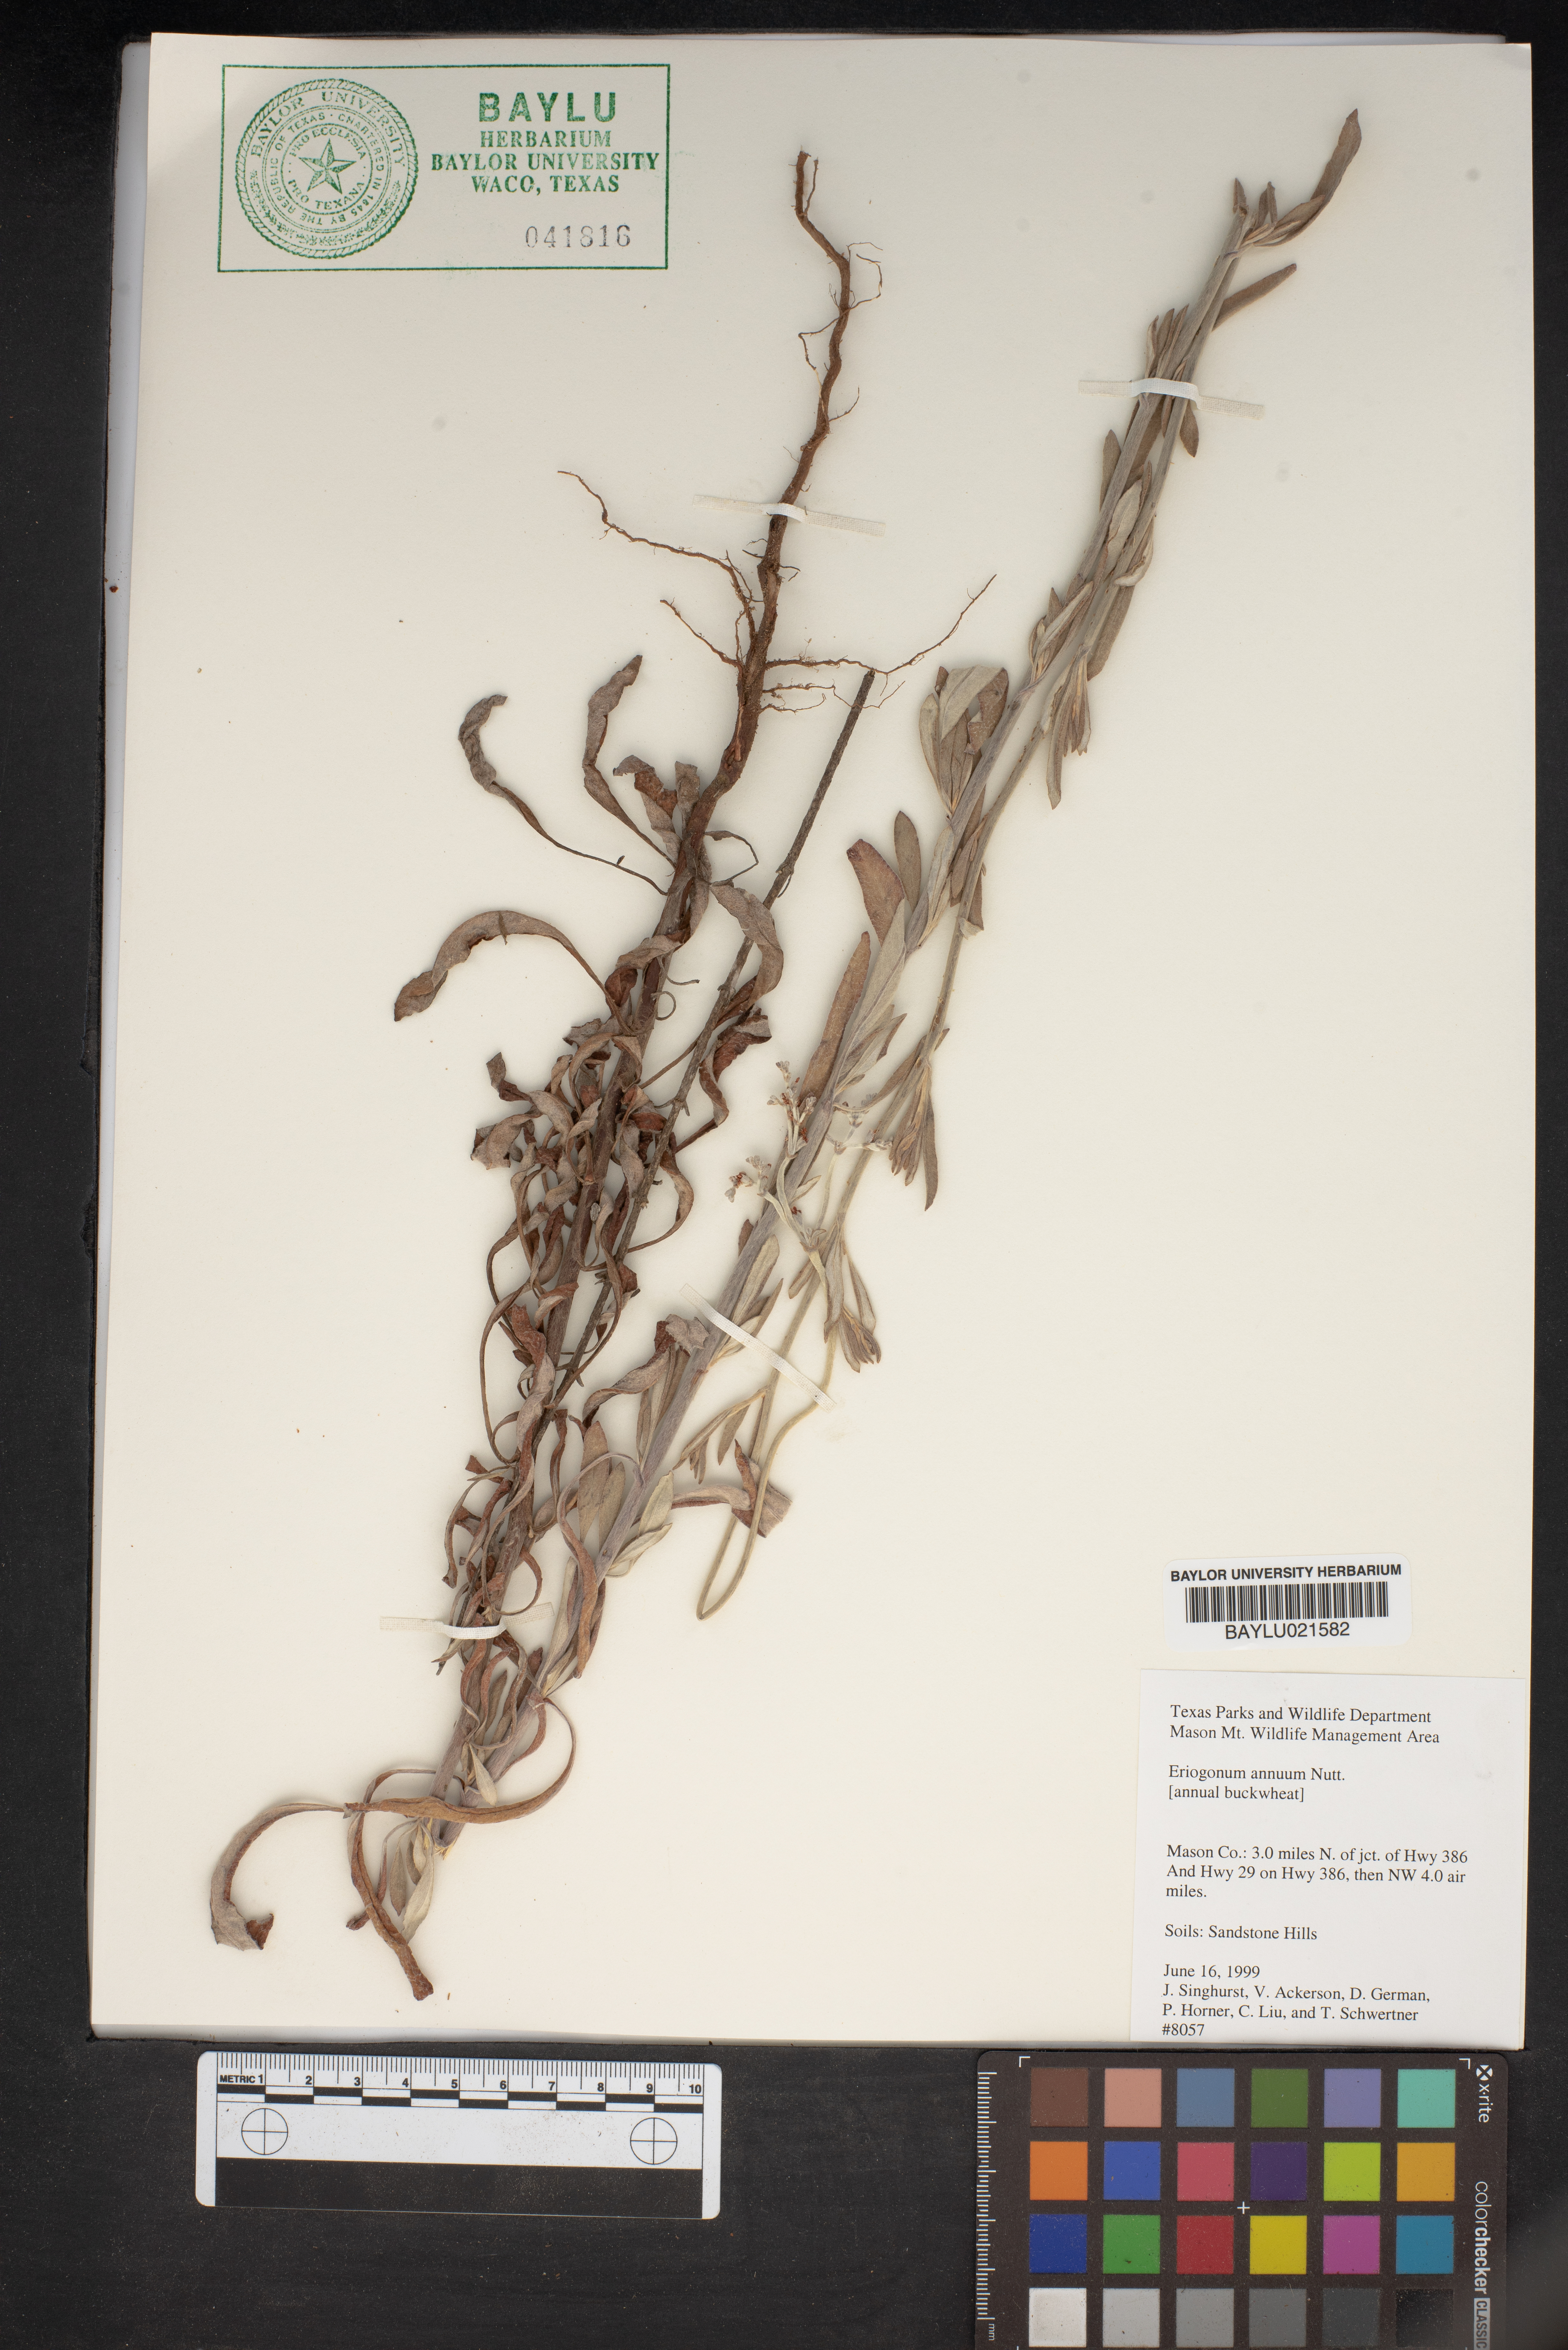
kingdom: Plantae
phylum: Tracheophyta
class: Magnoliopsida
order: Caryophyllales
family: Polygonaceae
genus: Eriogonum
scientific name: Eriogonum annuum
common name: Annual wild buckwheat
